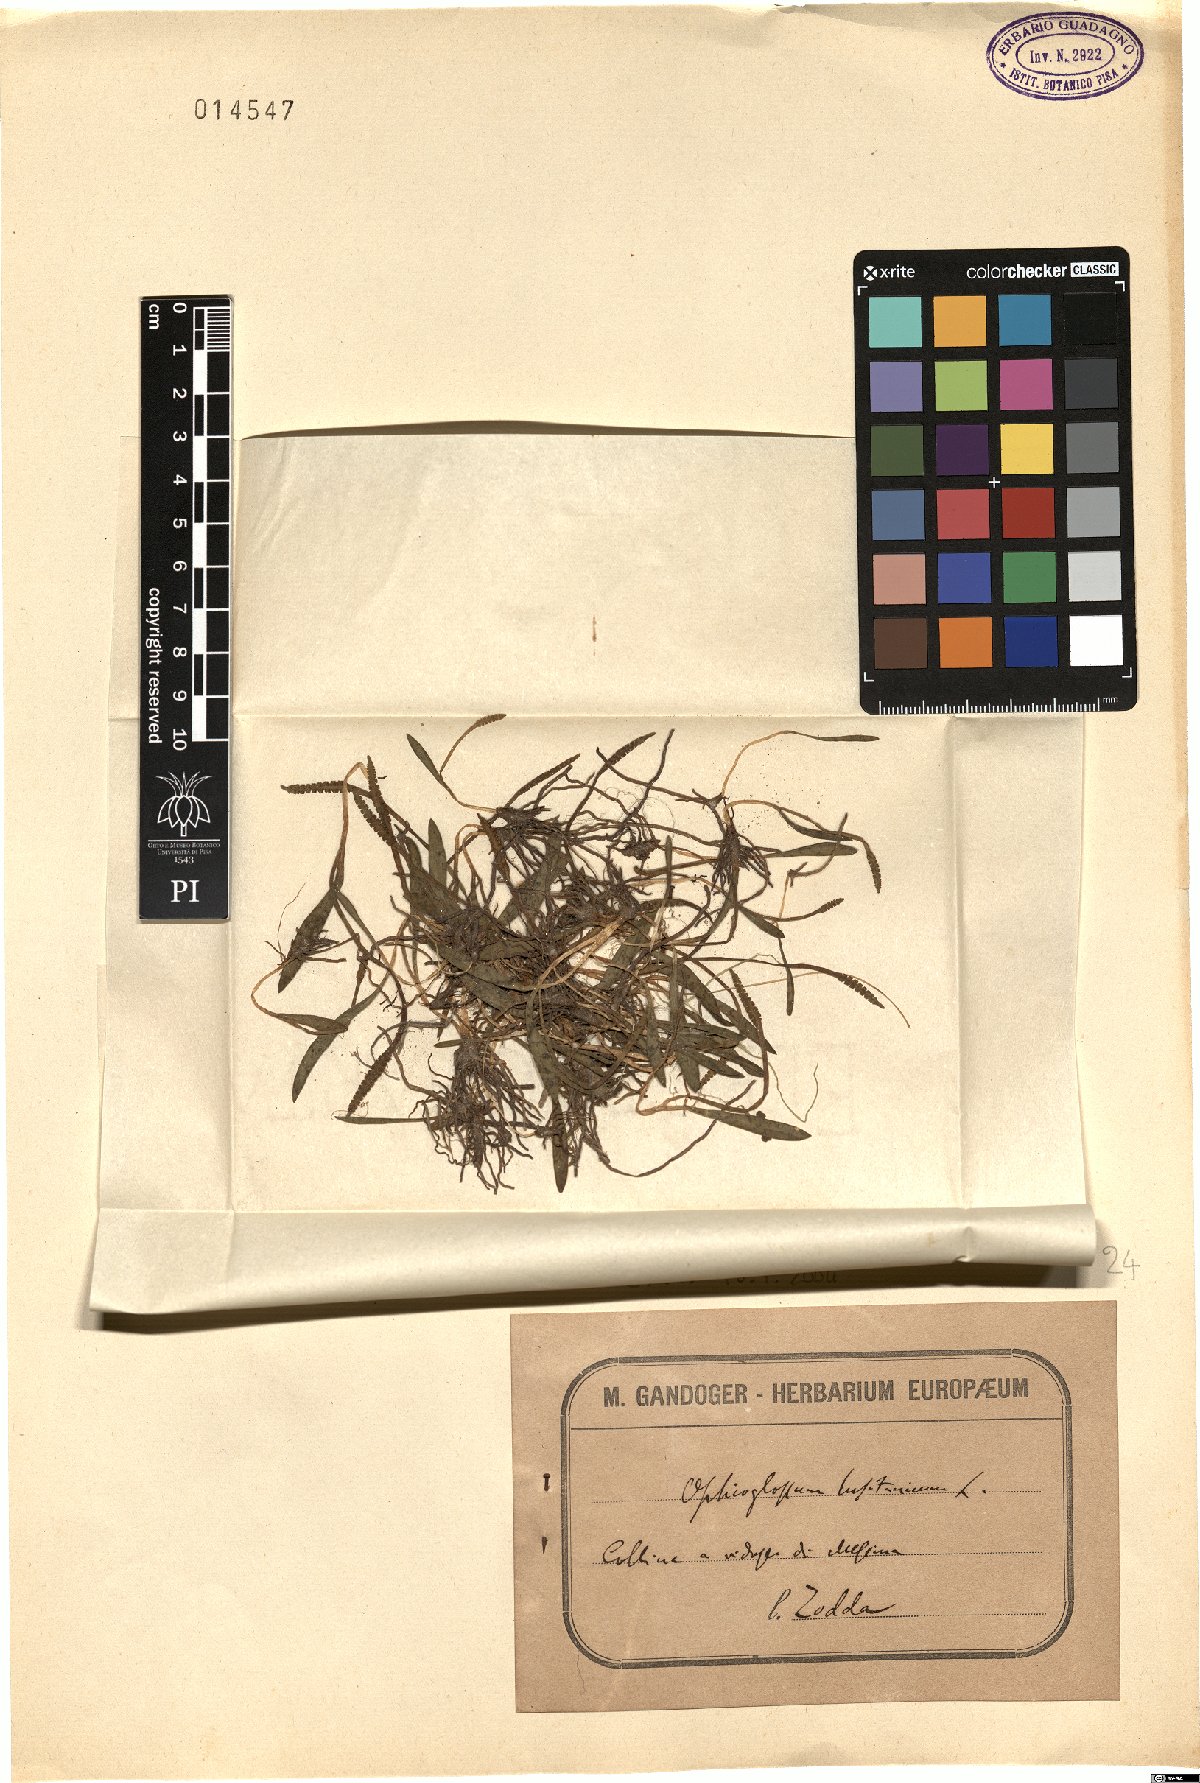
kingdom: Plantae
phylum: Tracheophyta
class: Polypodiopsida
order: Ophioglossales
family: Ophioglossaceae
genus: Ophioglossum
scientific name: Ophioglossum lusitanicum
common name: Least adder's-tongue
